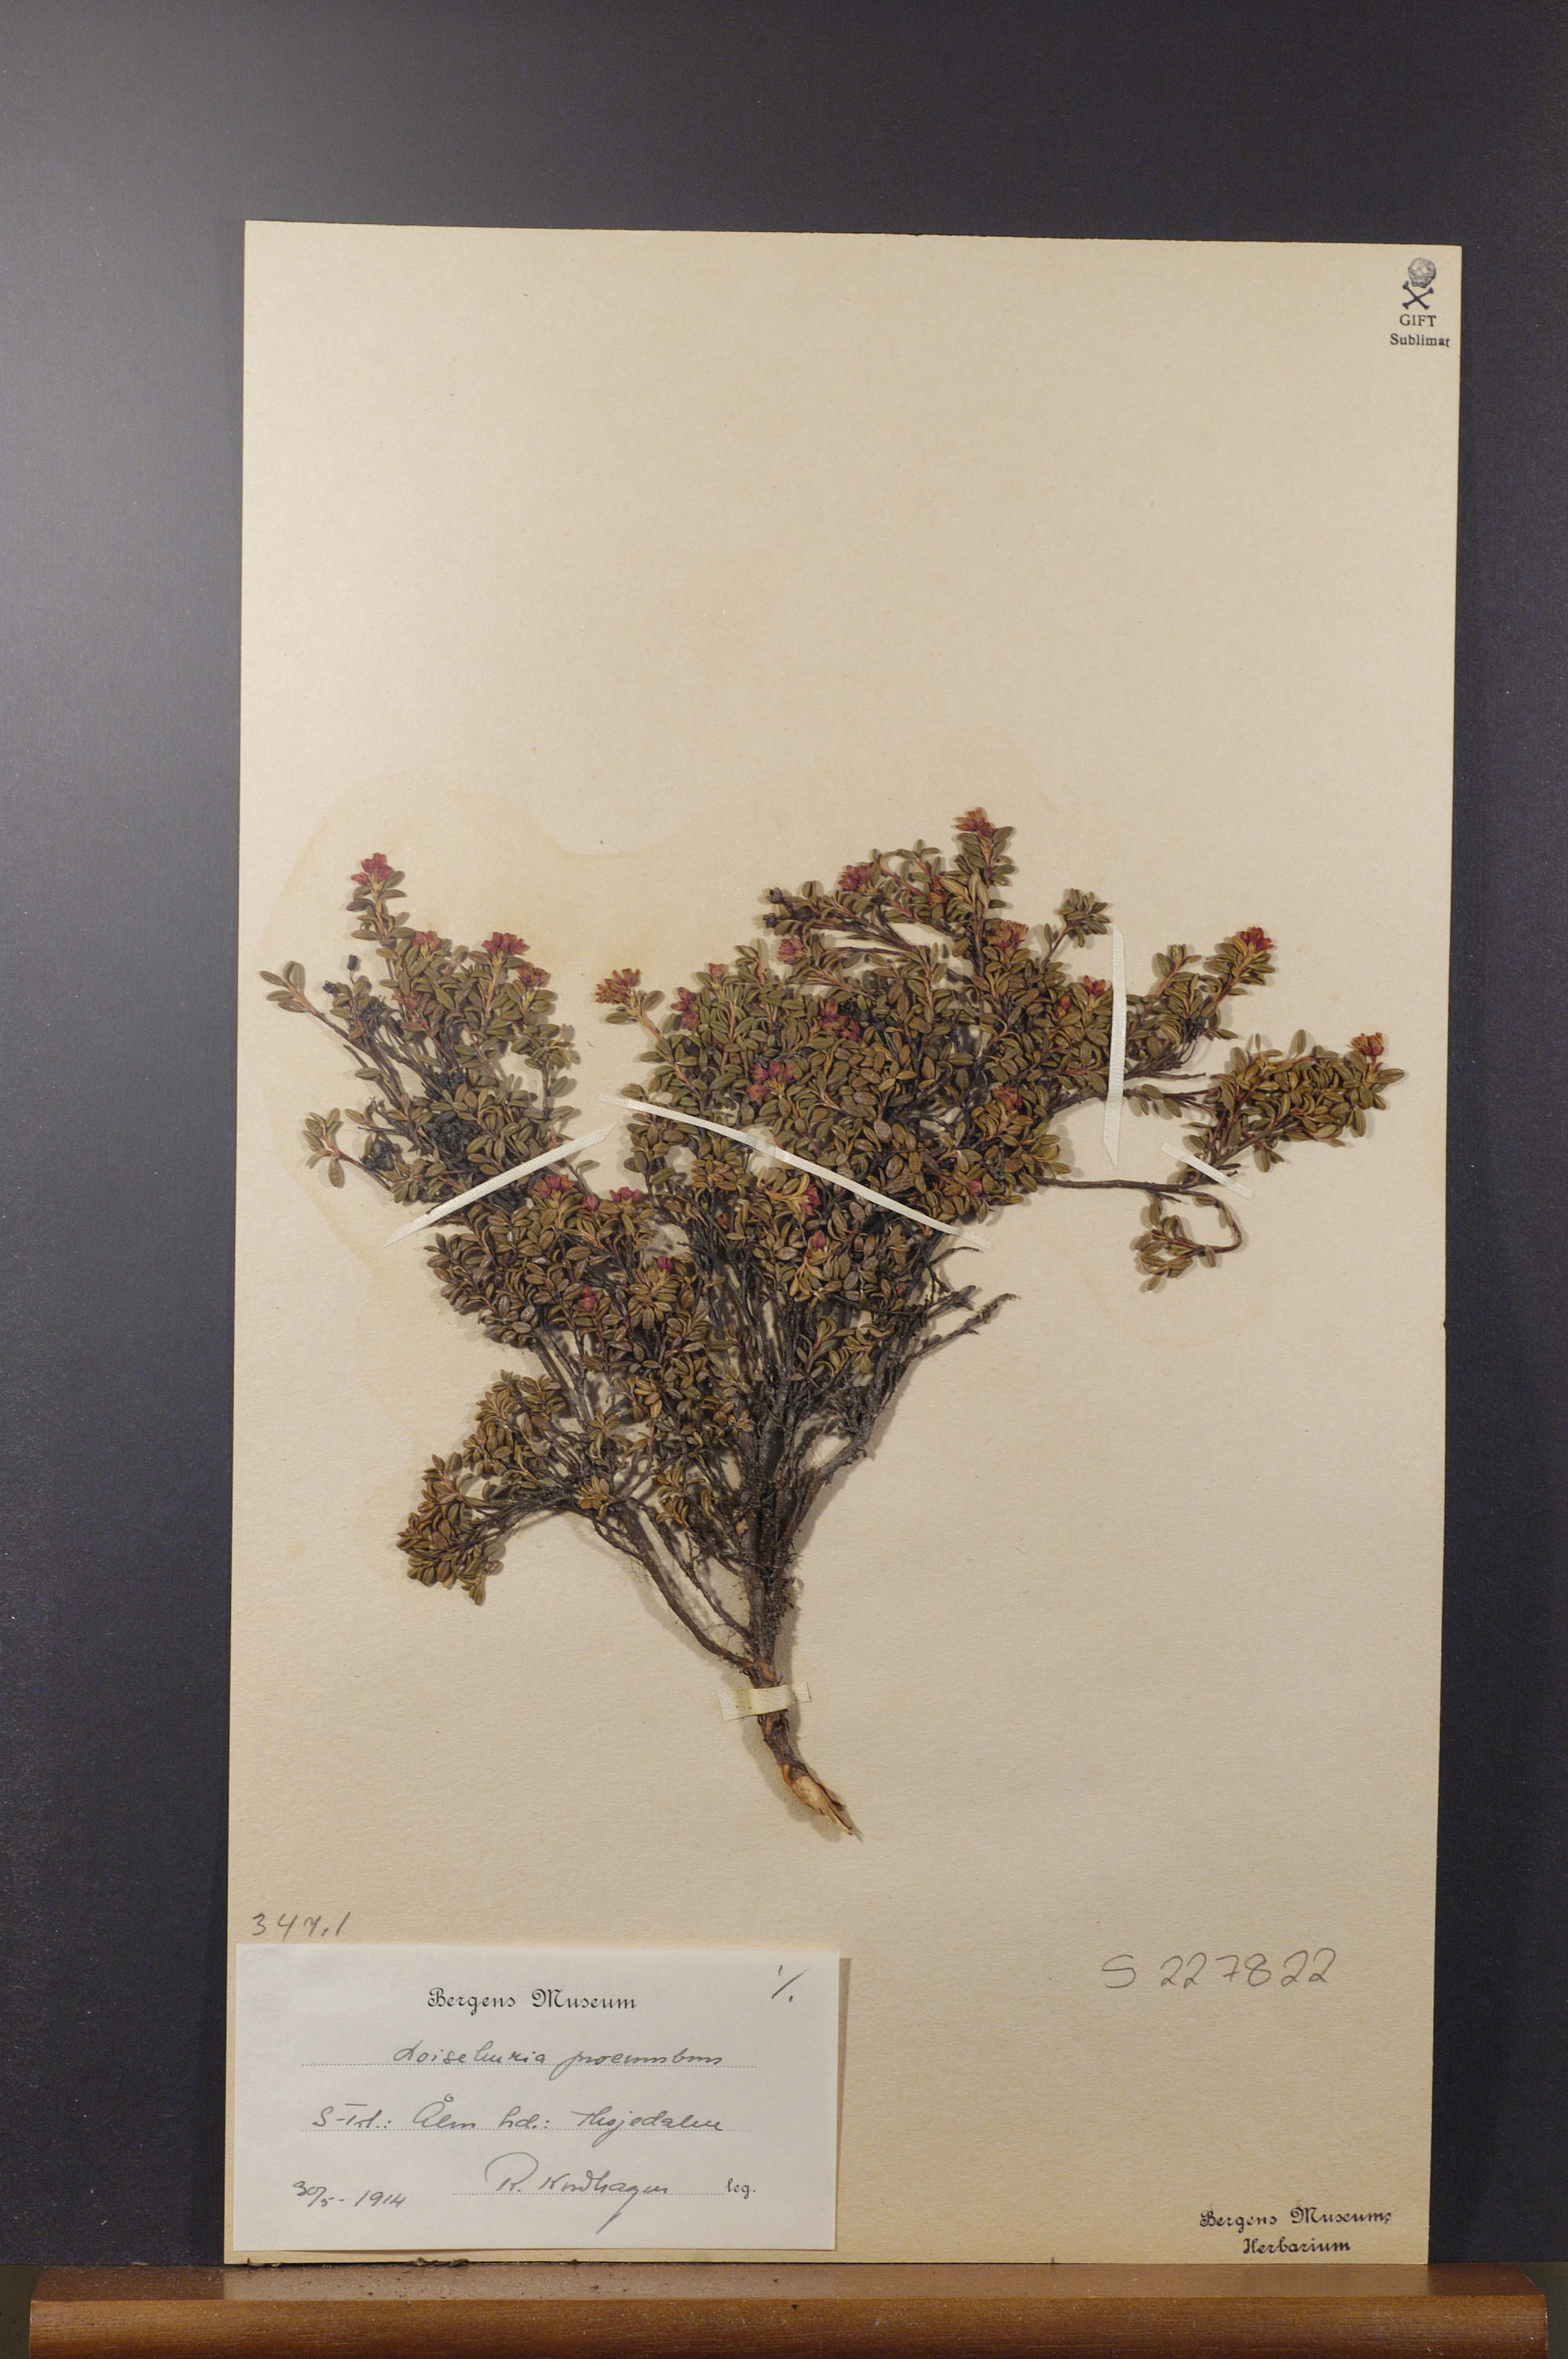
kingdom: Plantae
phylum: Tracheophyta
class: Magnoliopsida
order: Ericales
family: Ericaceae
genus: Kalmia
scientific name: Kalmia procumbens
